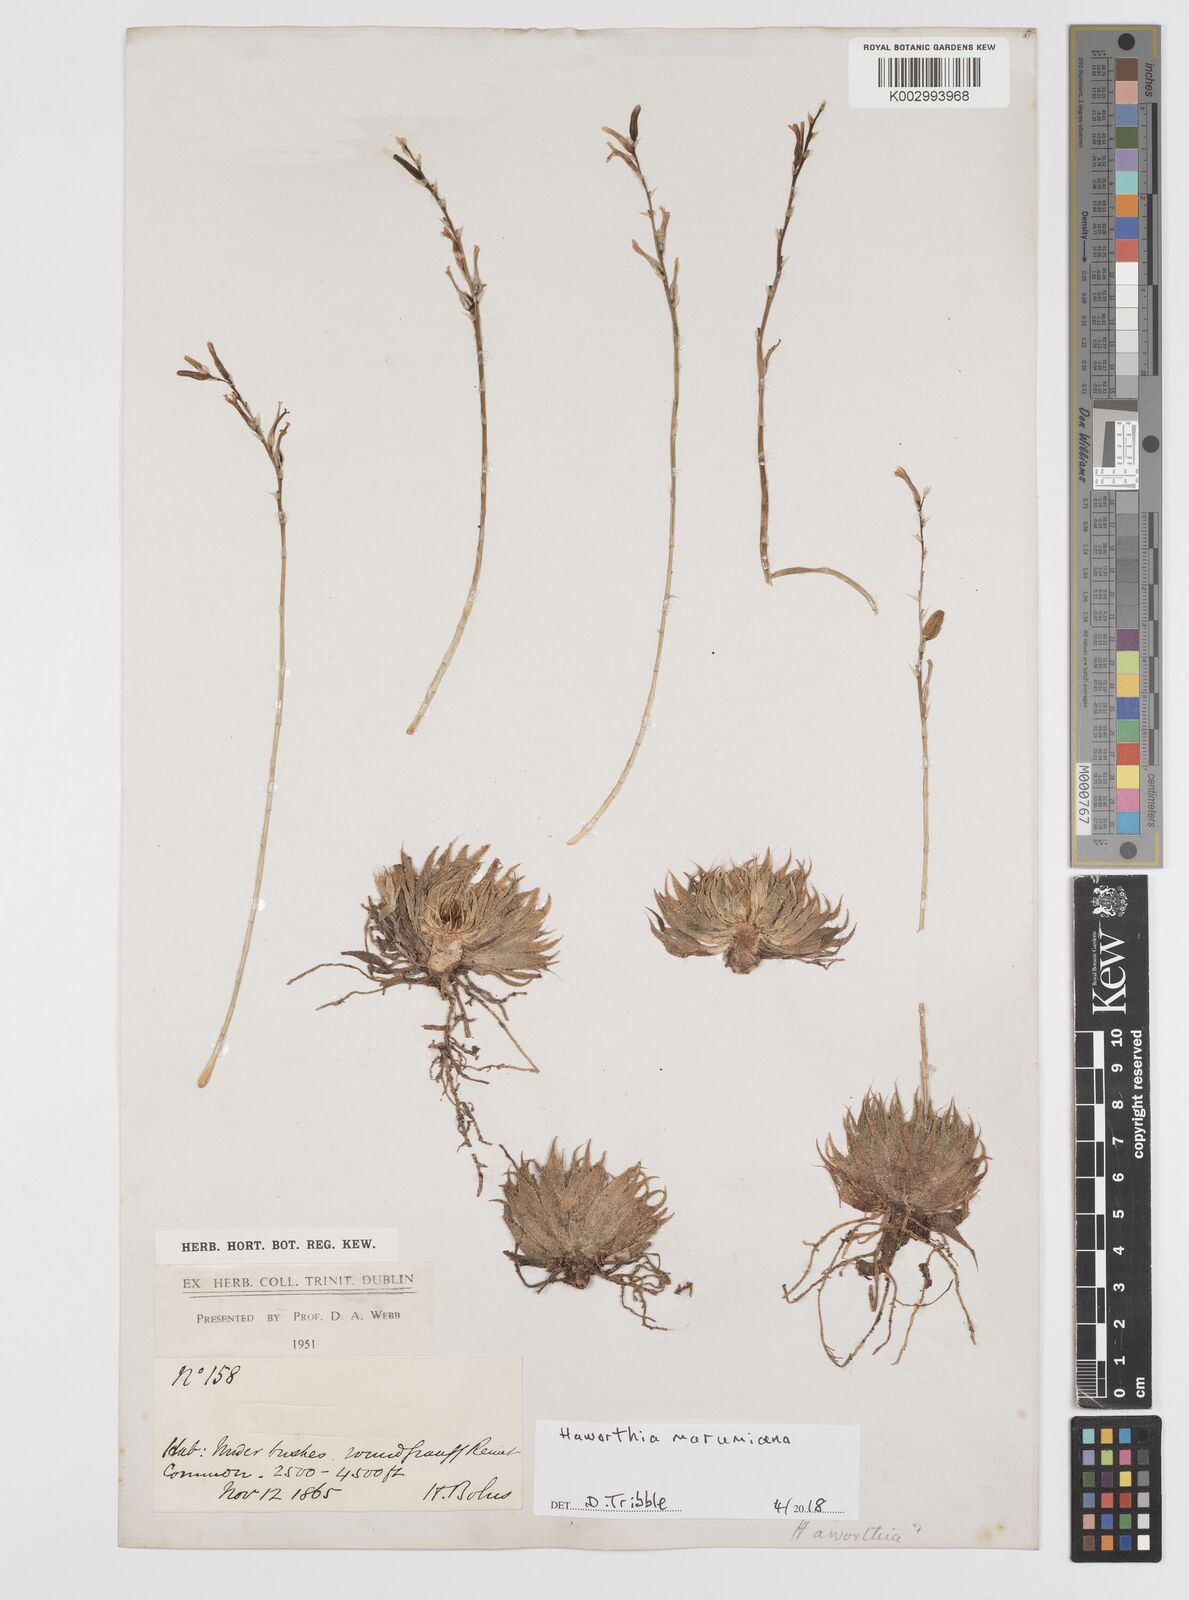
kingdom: Plantae
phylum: Tracheophyta
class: Liliopsida
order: Asparagales
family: Asphodelaceae
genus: Tulista
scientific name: Tulista marginata
